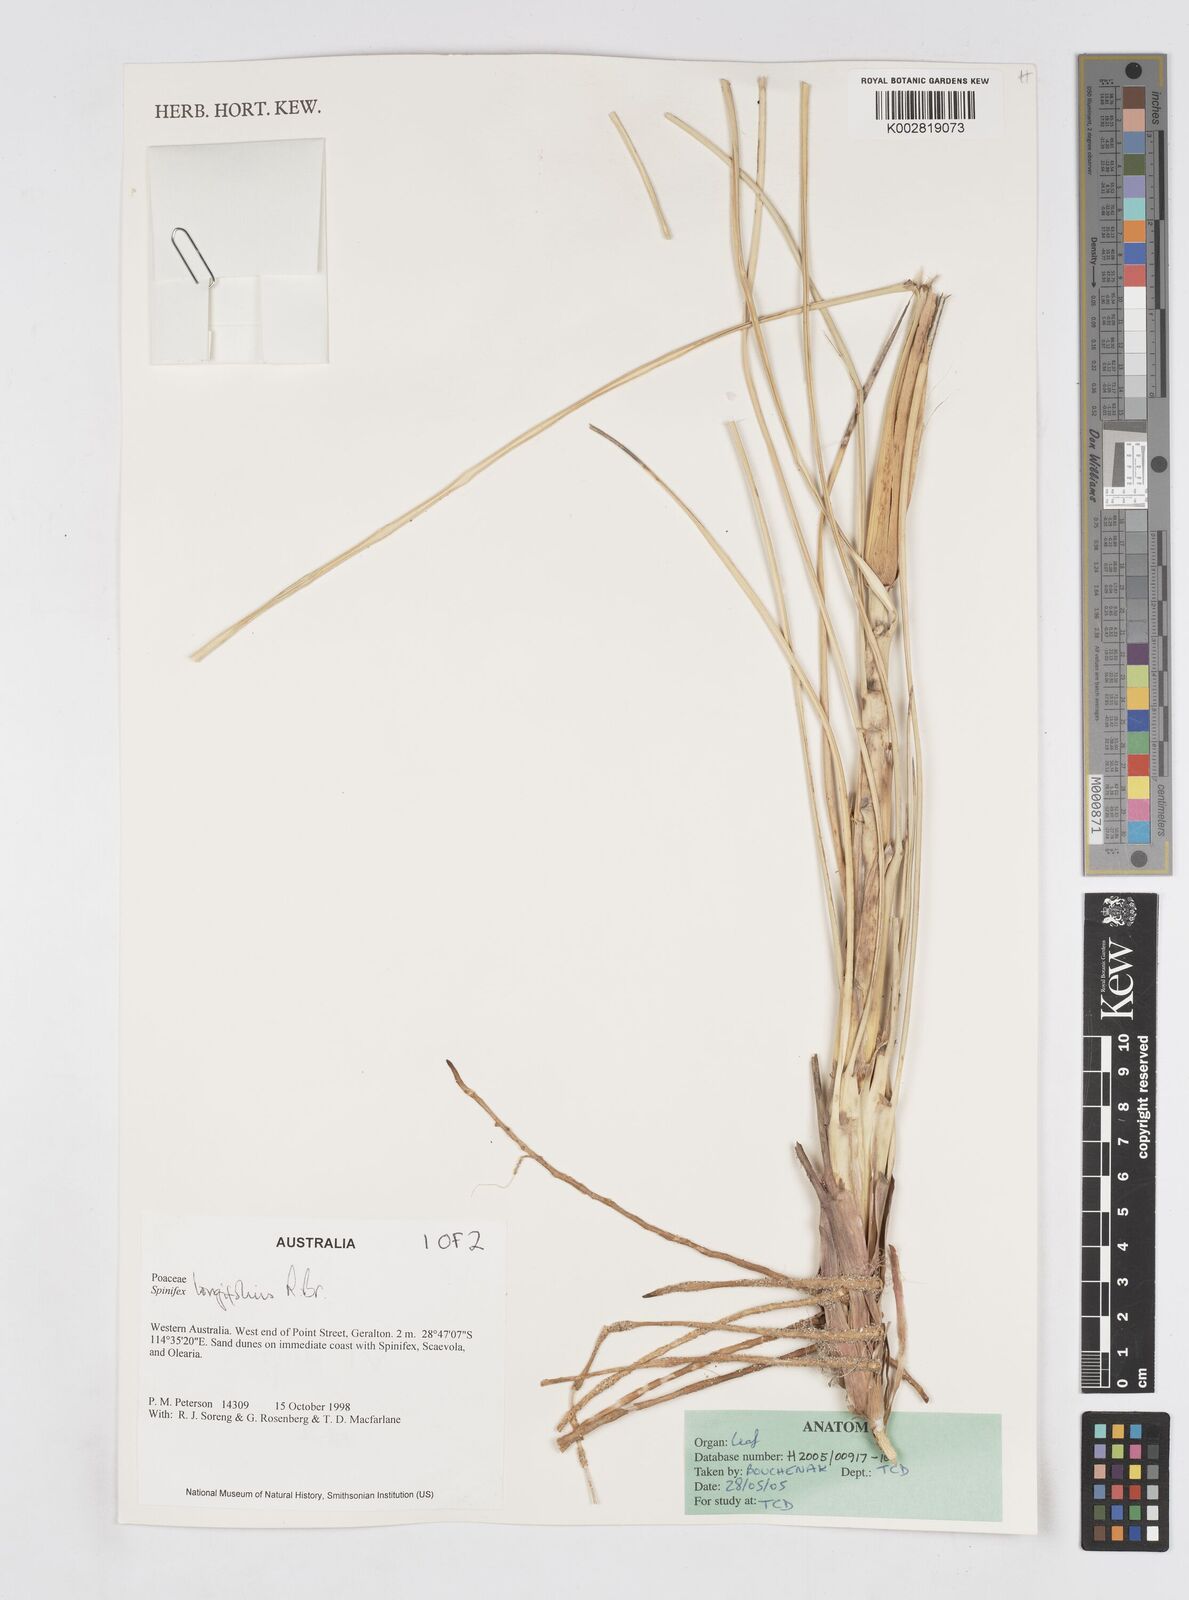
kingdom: Plantae
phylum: Tracheophyta
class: Liliopsida
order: Poales
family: Poaceae
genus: Spinifex
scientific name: Spinifex longifolius
